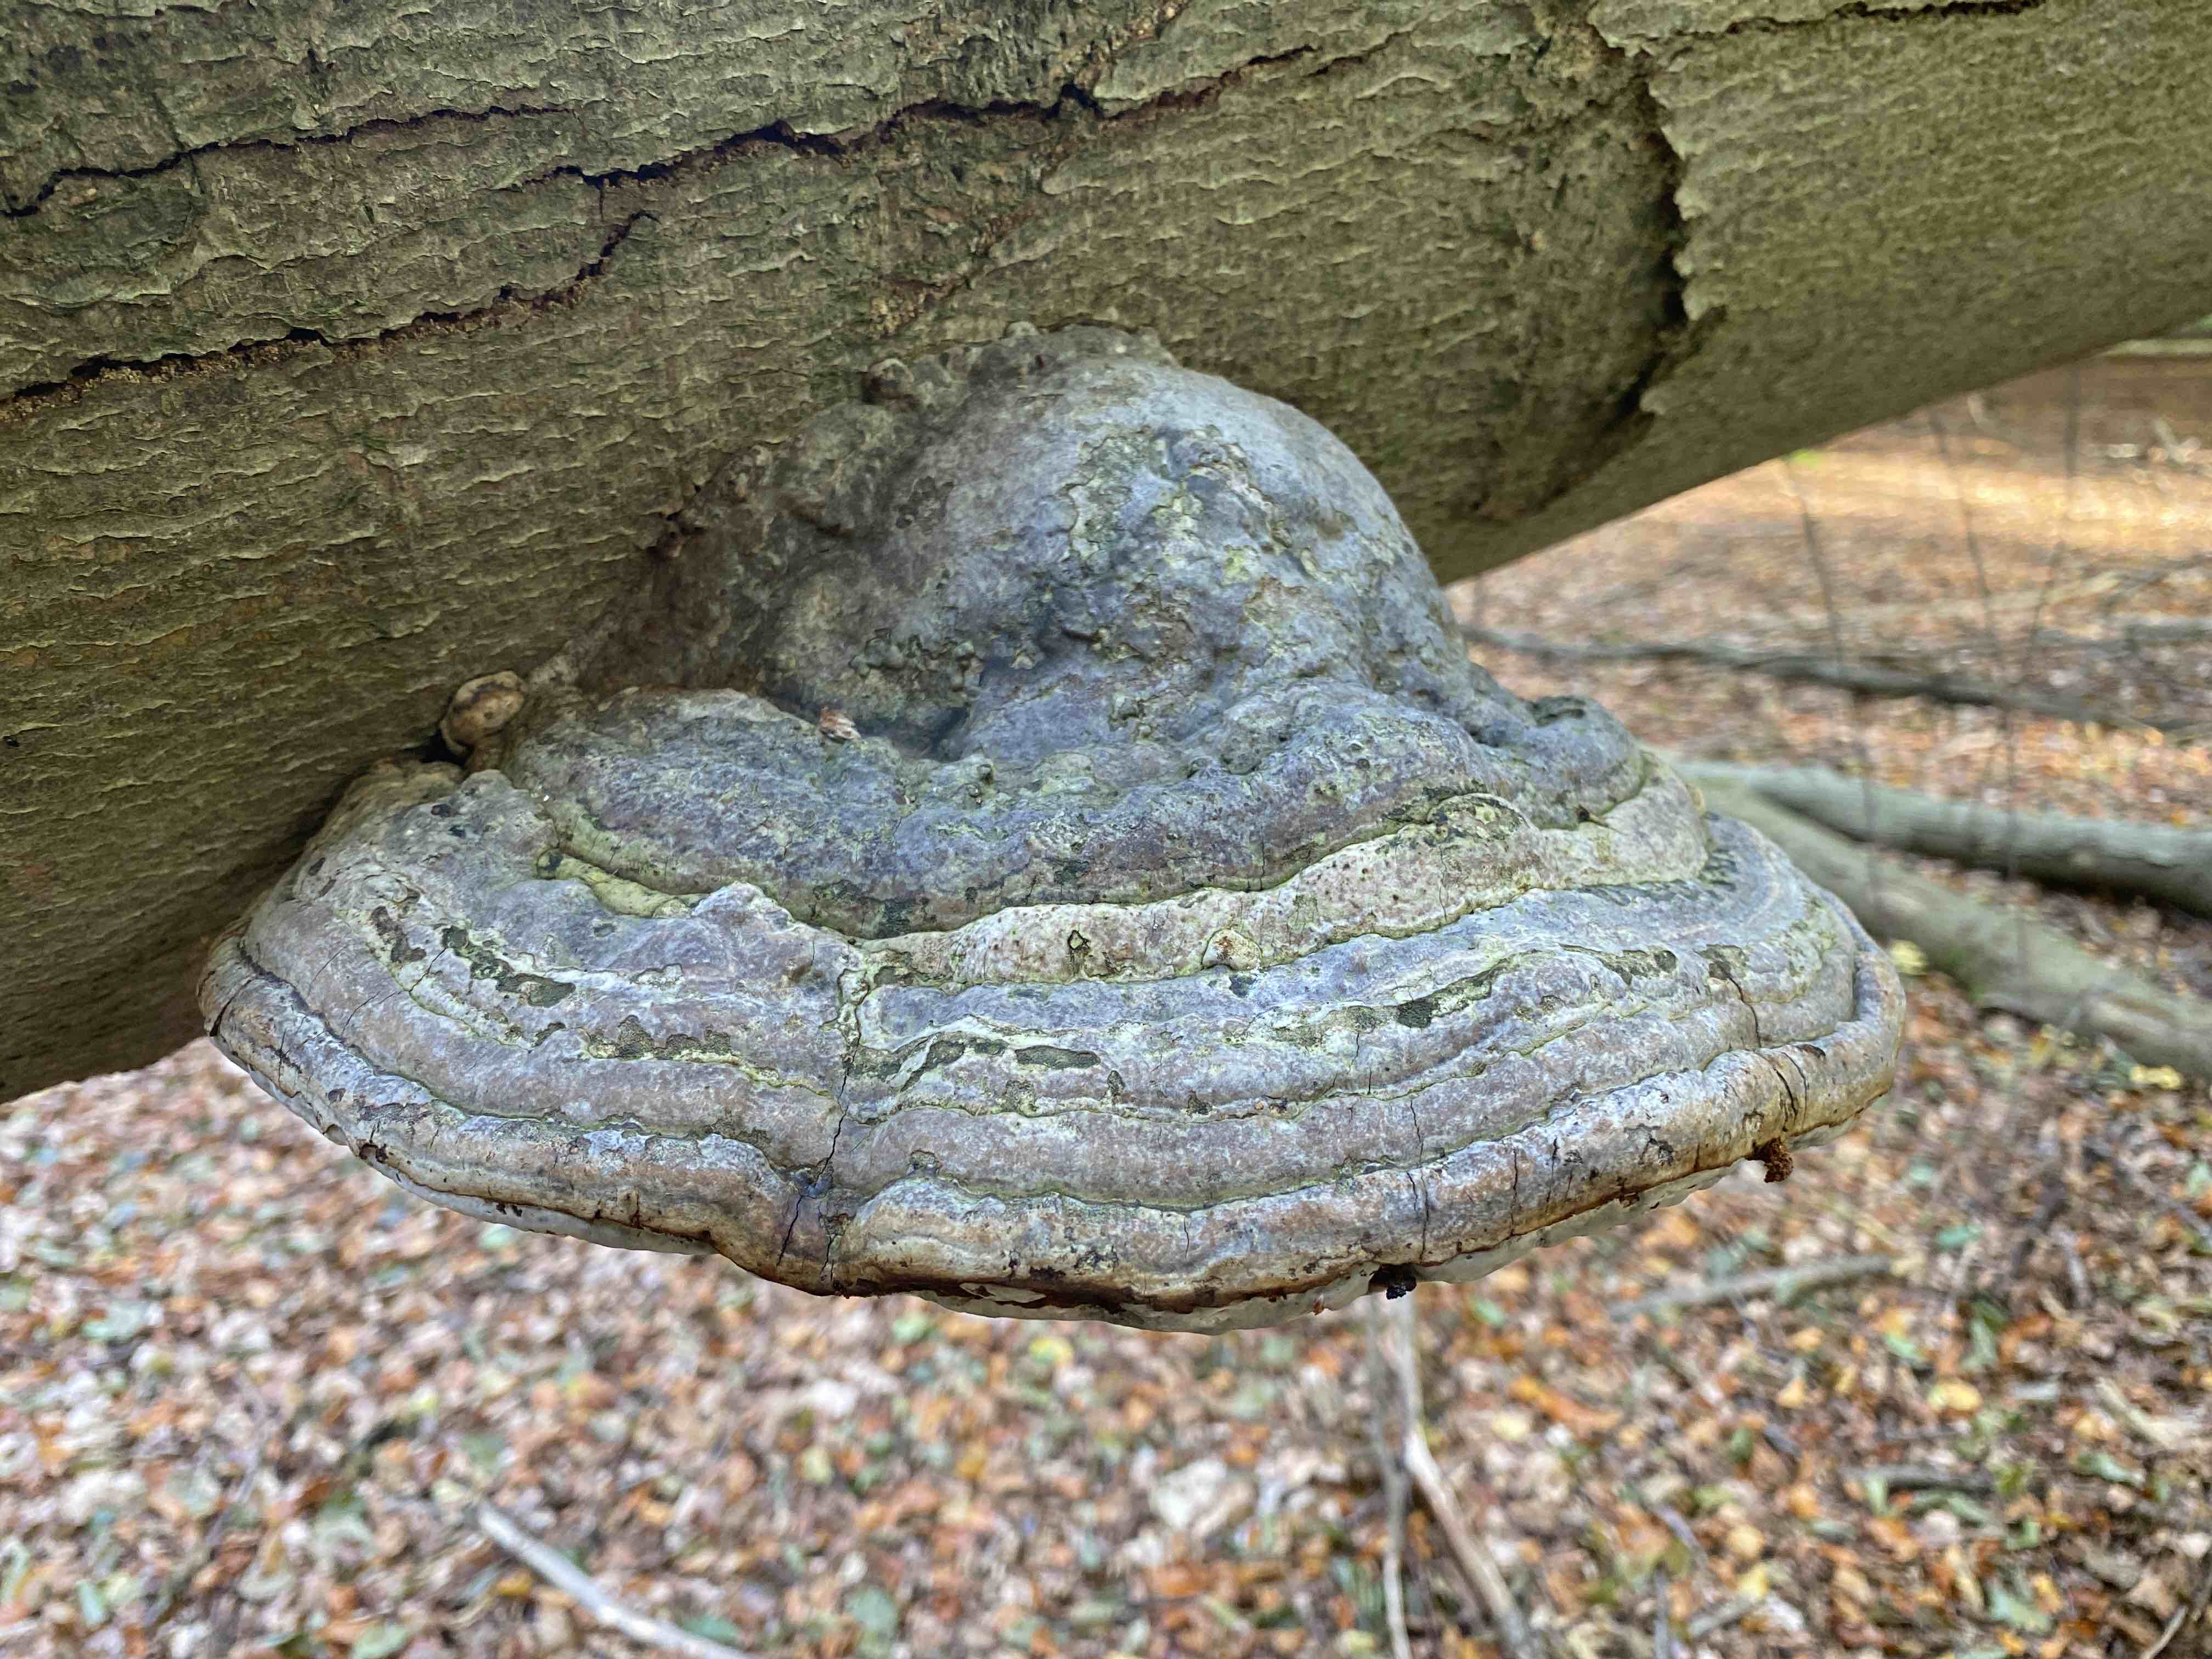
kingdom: Fungi
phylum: Basidiomycota
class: Agaricomycetes
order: Polyporales
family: Polyporaceae
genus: Fomes
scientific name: Fomes fomentarius
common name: tøndersvamp
